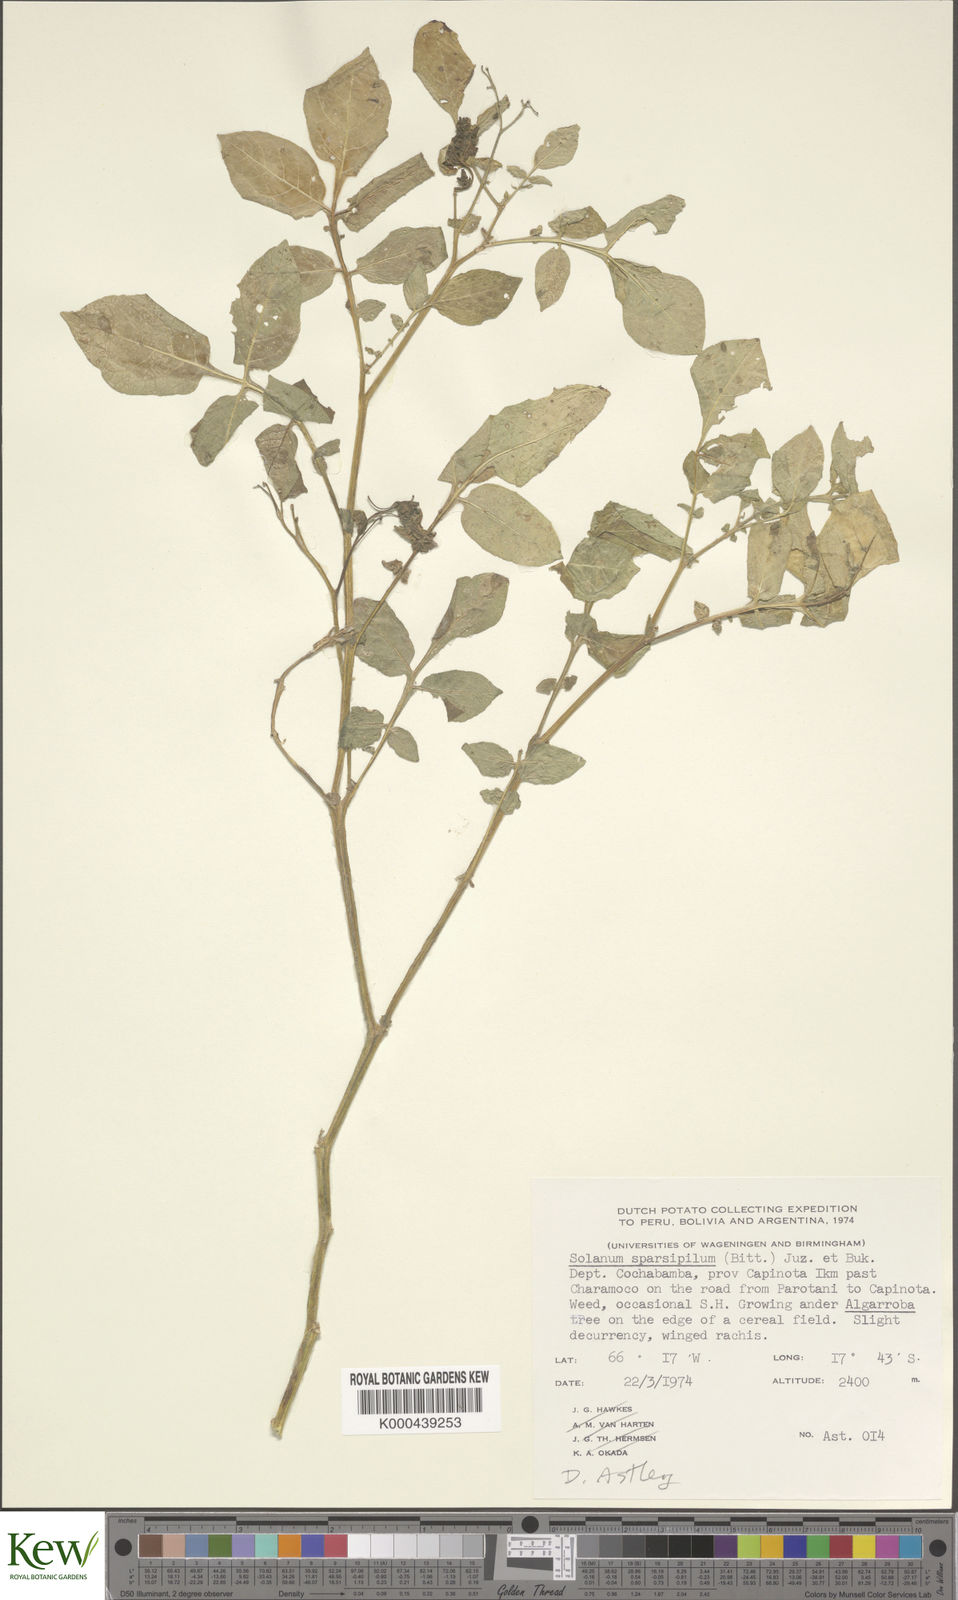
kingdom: Plantae
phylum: Tracheophyta
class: Magnoliopsida
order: Solanales
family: Solanaceae
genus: Solanum
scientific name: Solanum brevicaule
